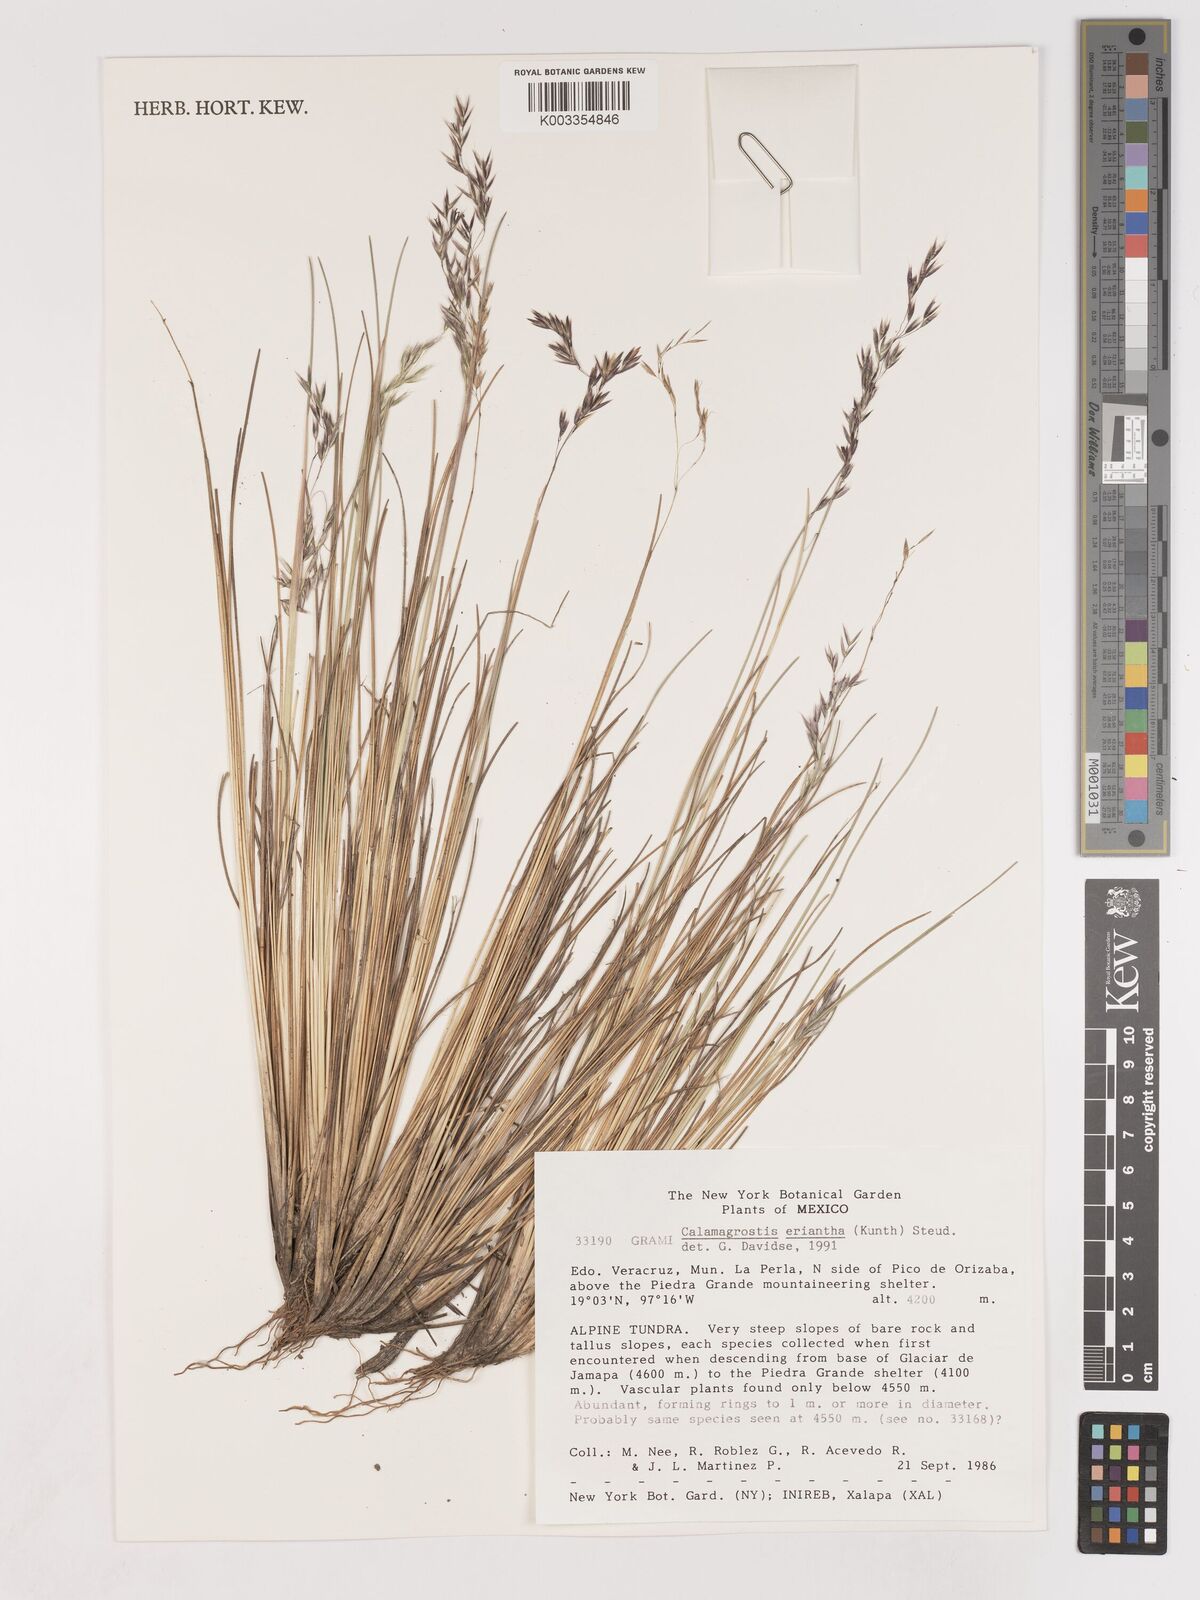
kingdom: Plantae
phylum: Tracheophyta
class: Liliopsida
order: Poales
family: Poaceae
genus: Peyritschia
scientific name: Peyritschia eriantha
